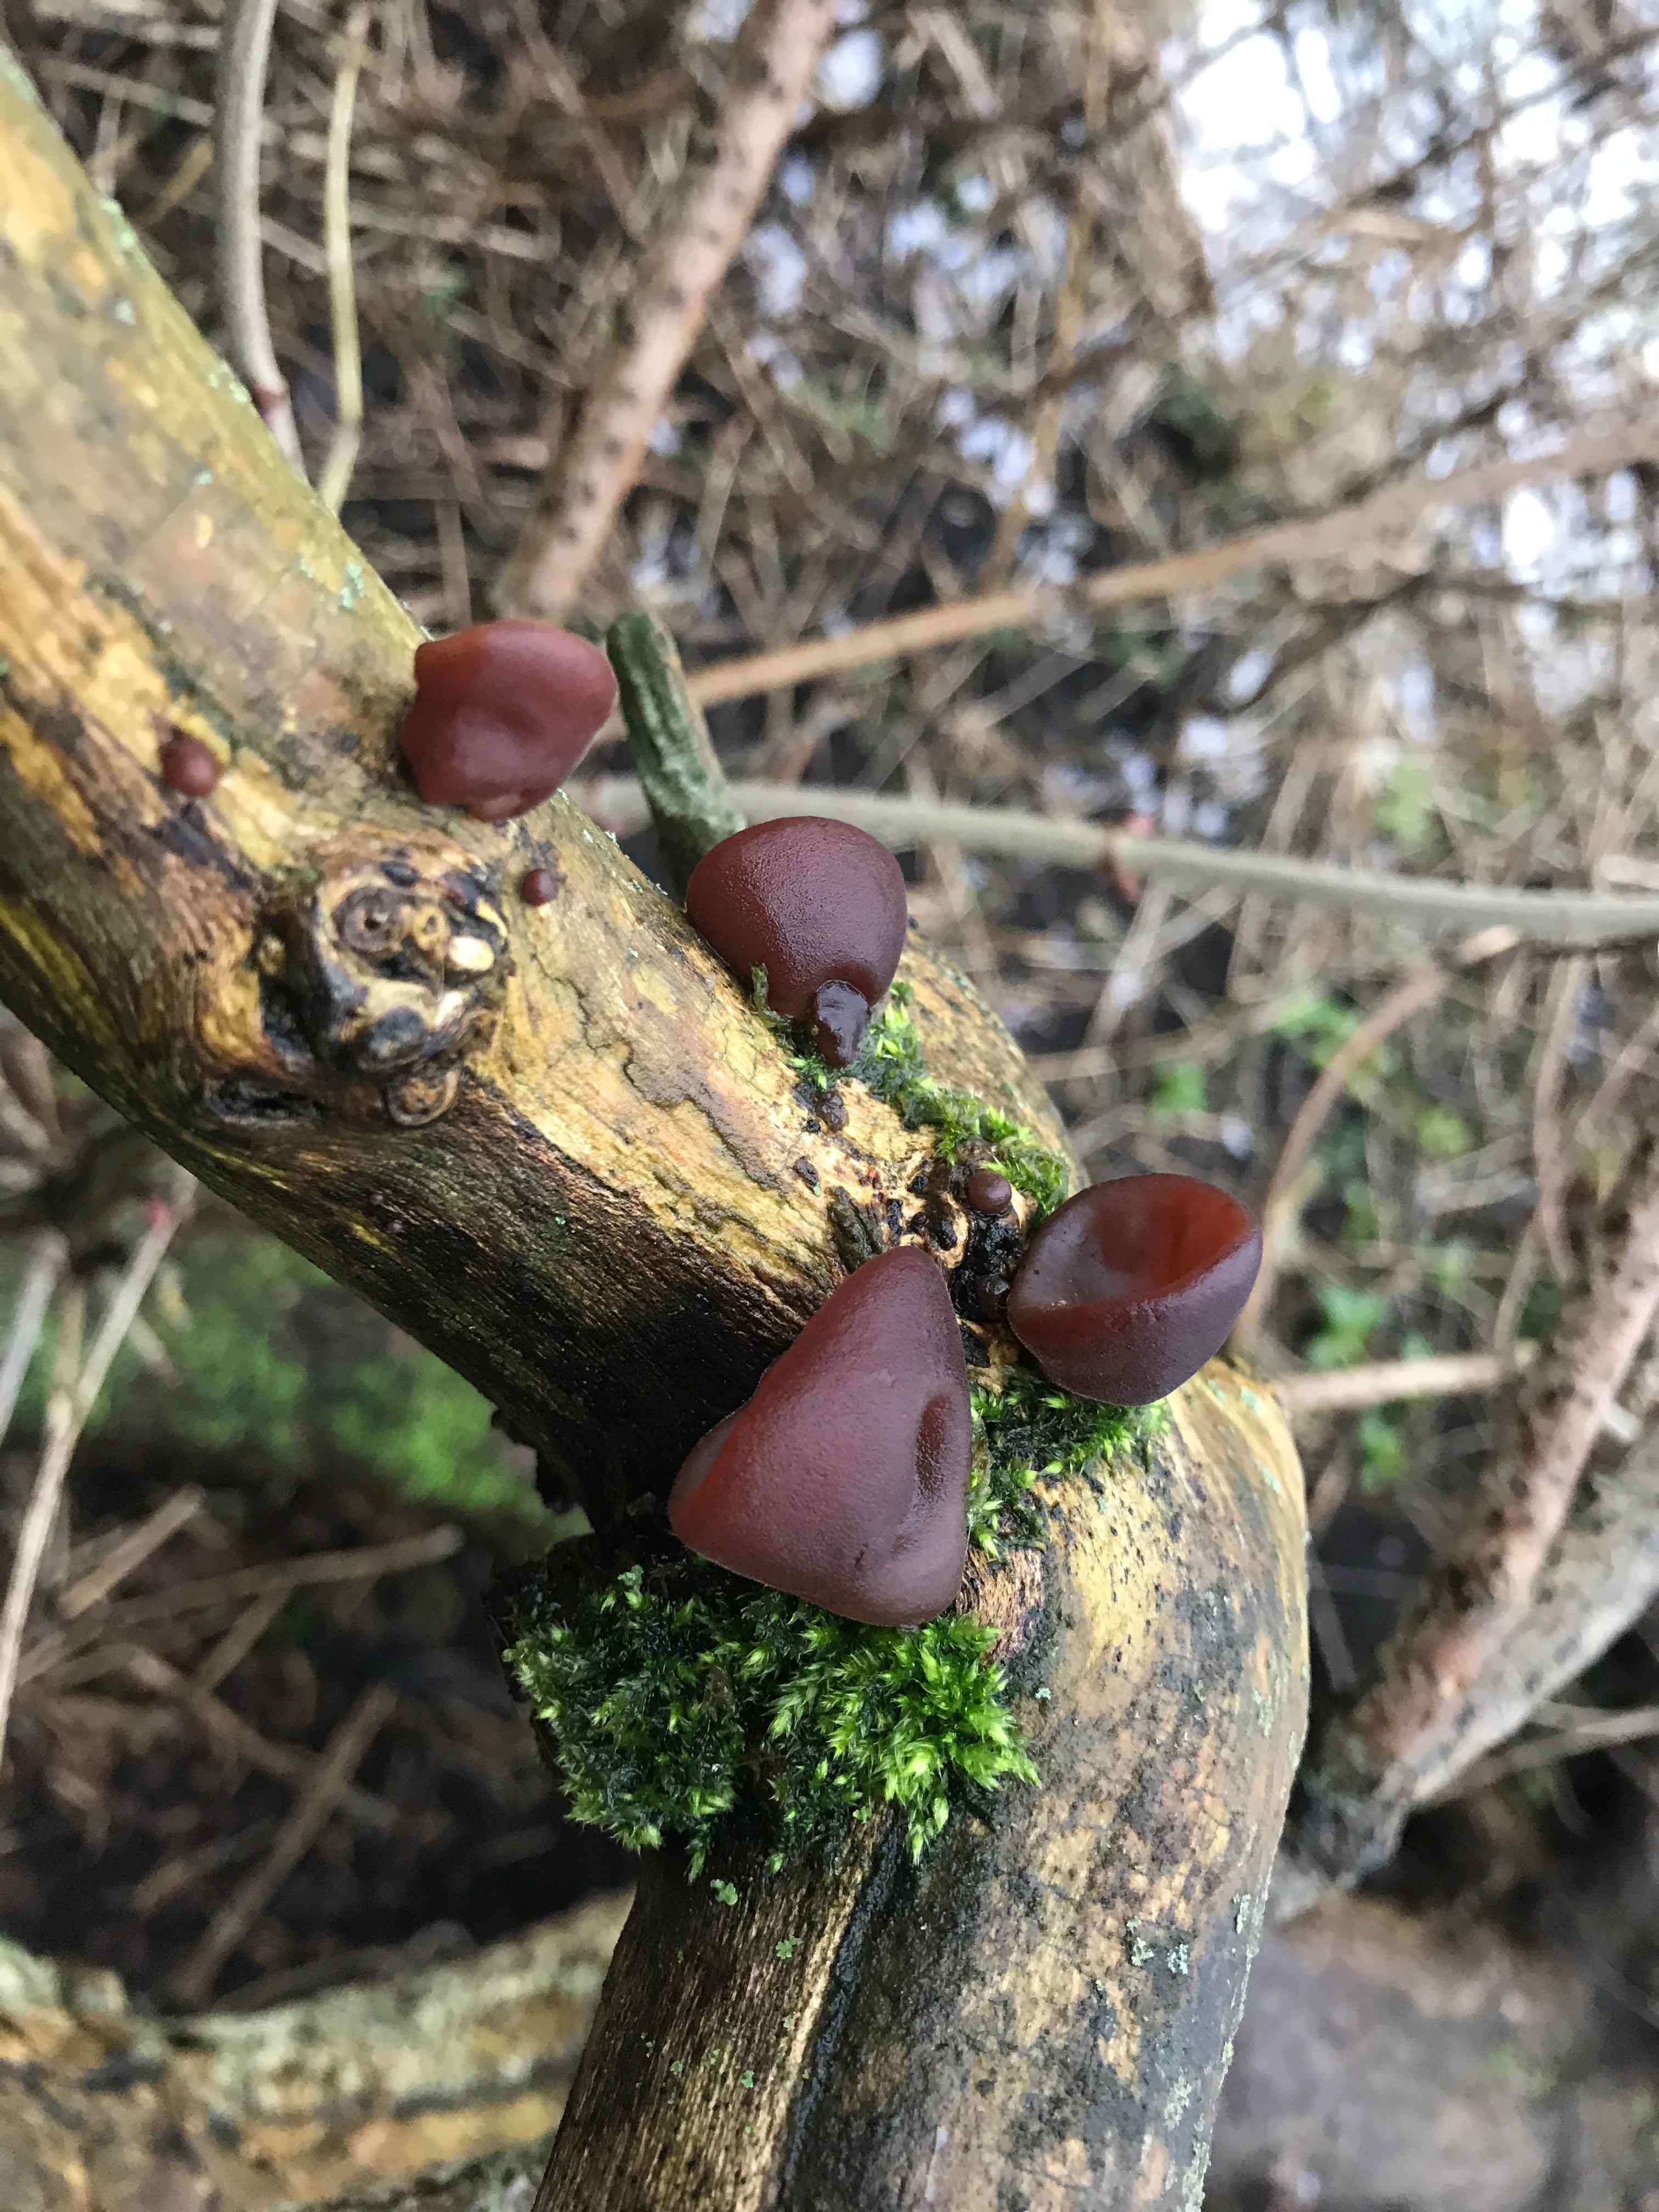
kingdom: Fungi
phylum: Basidiomycota
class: Agaricomycetes
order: Auriculariales
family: Auriculariaceae
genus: Auricularia
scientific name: Auricularia auricula-judae
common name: almindelig judasøre
